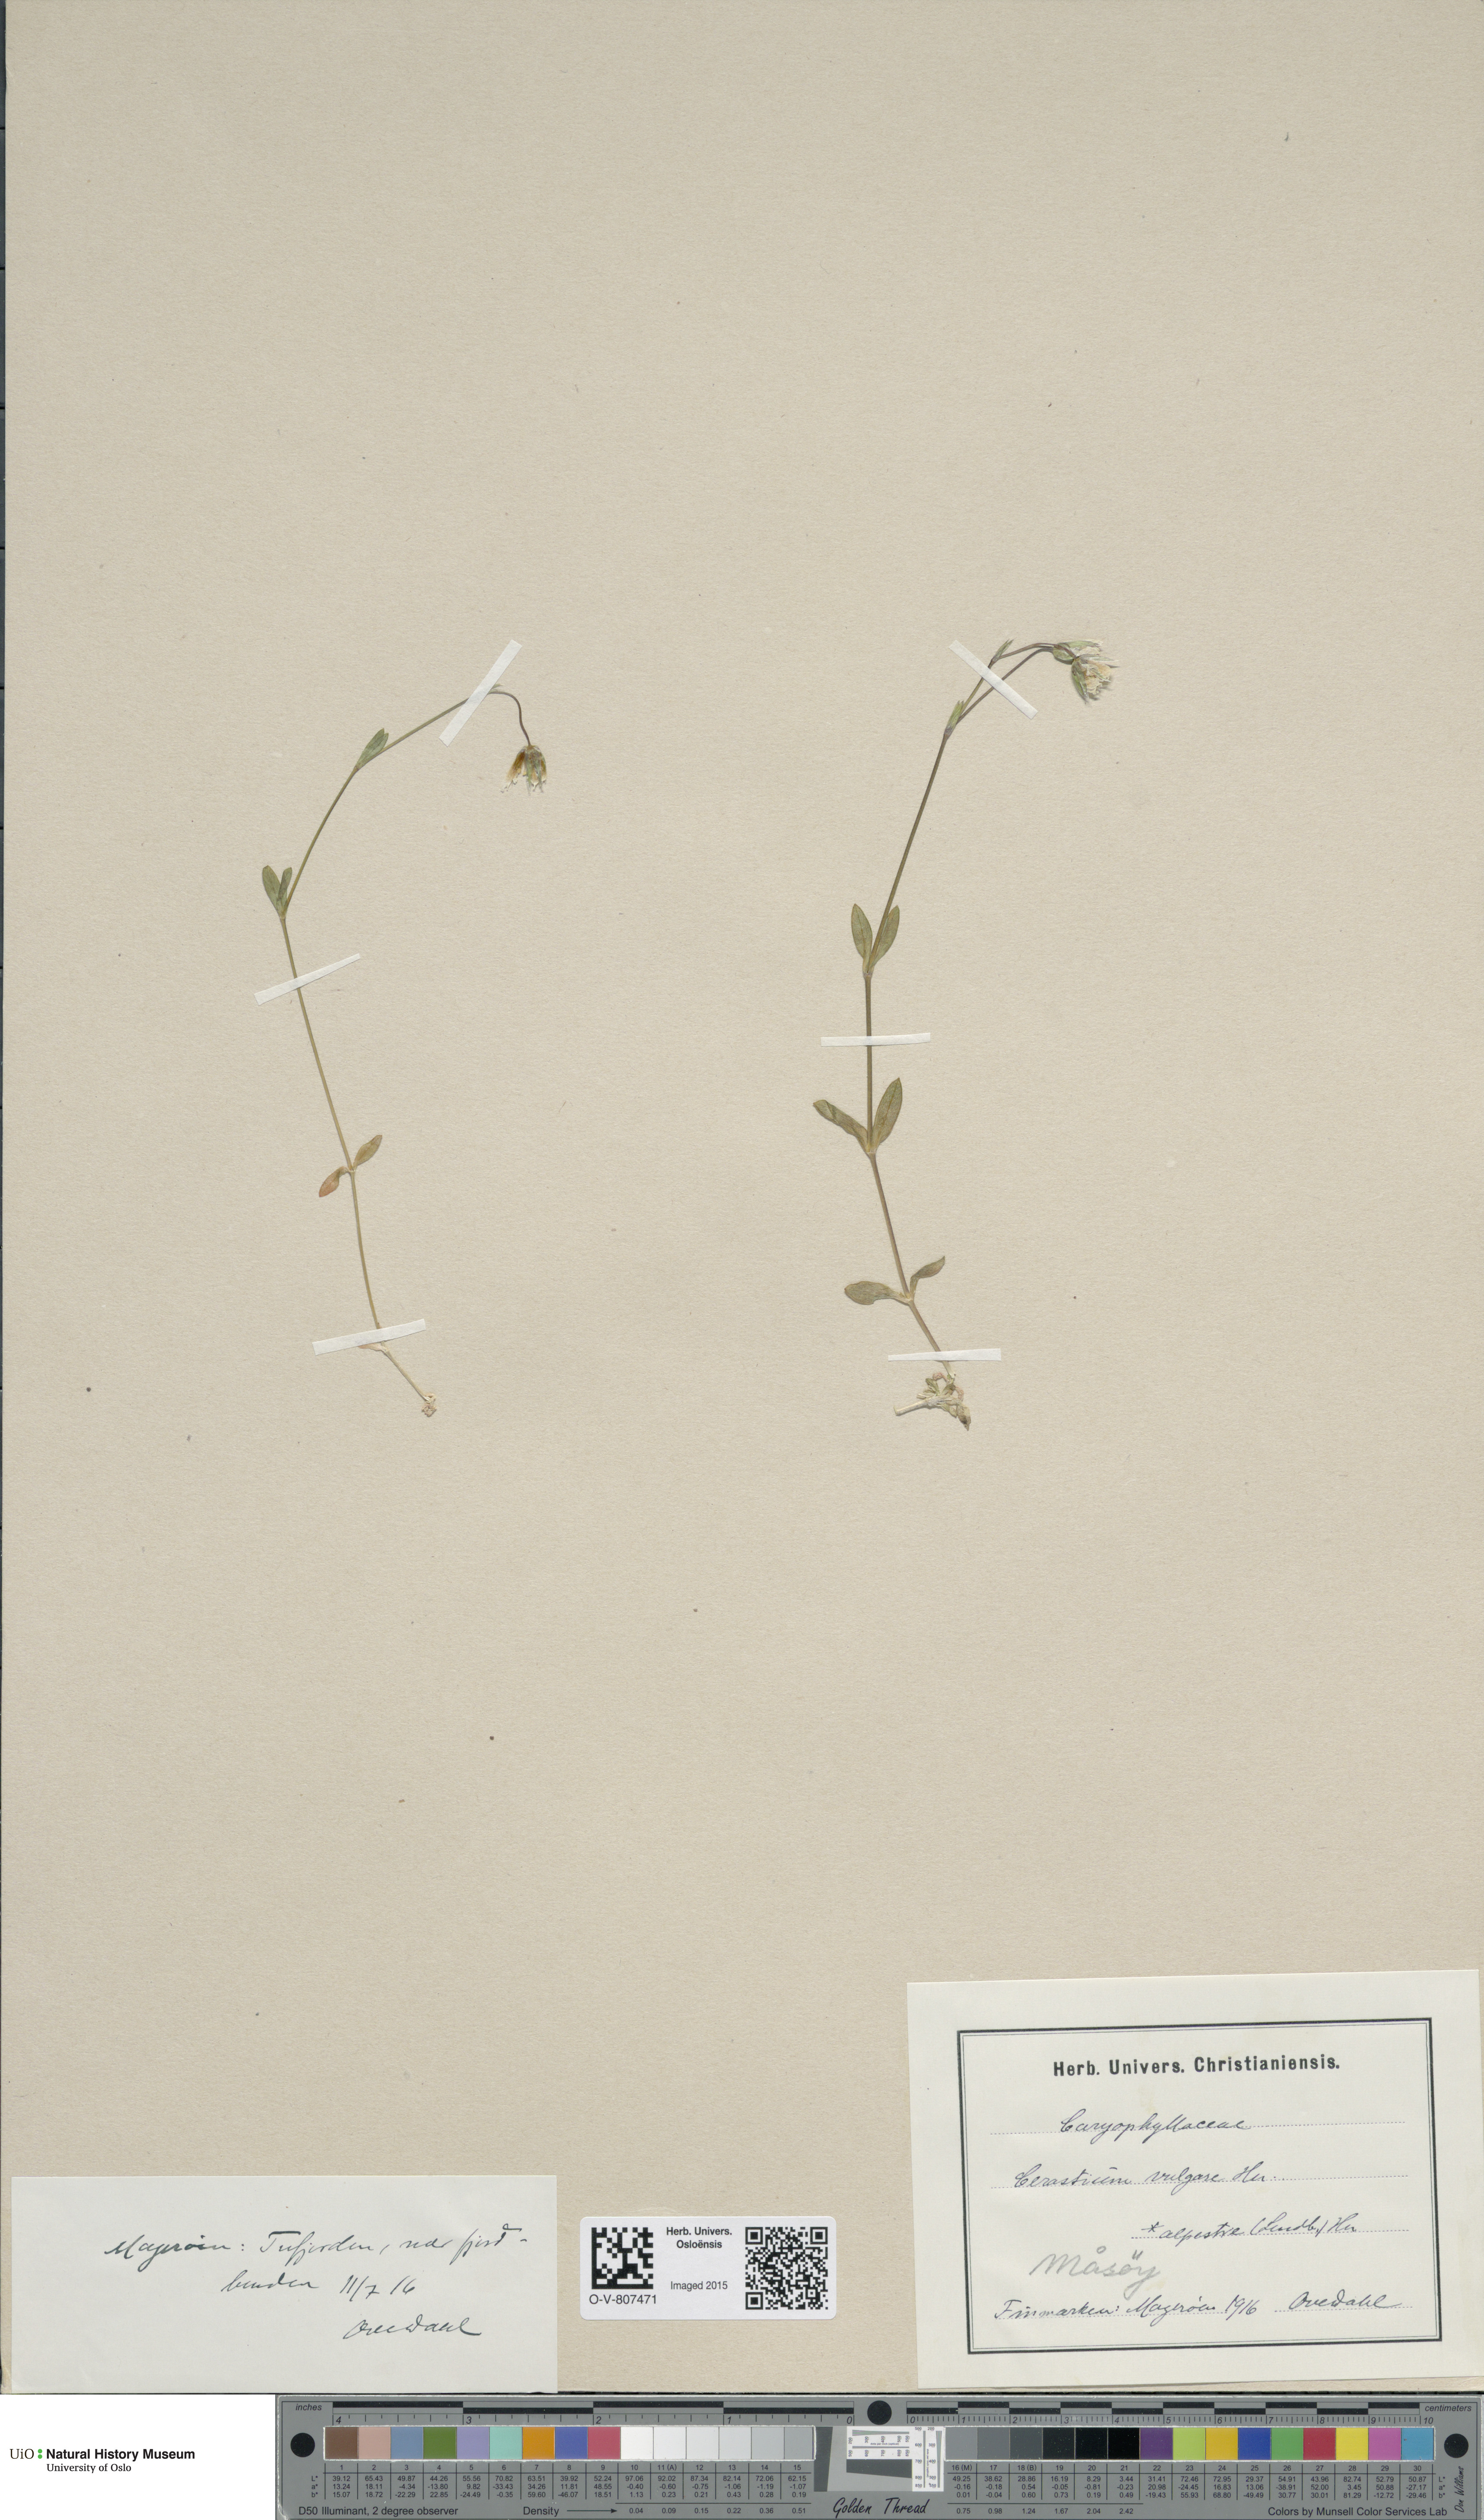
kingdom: Plantae
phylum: Tracheophyta
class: Magnoliopsida
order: Caryophyllales
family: Caryophyllaceae
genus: Cerastium
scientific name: Cerastium holosteoides
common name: Big chickweed
